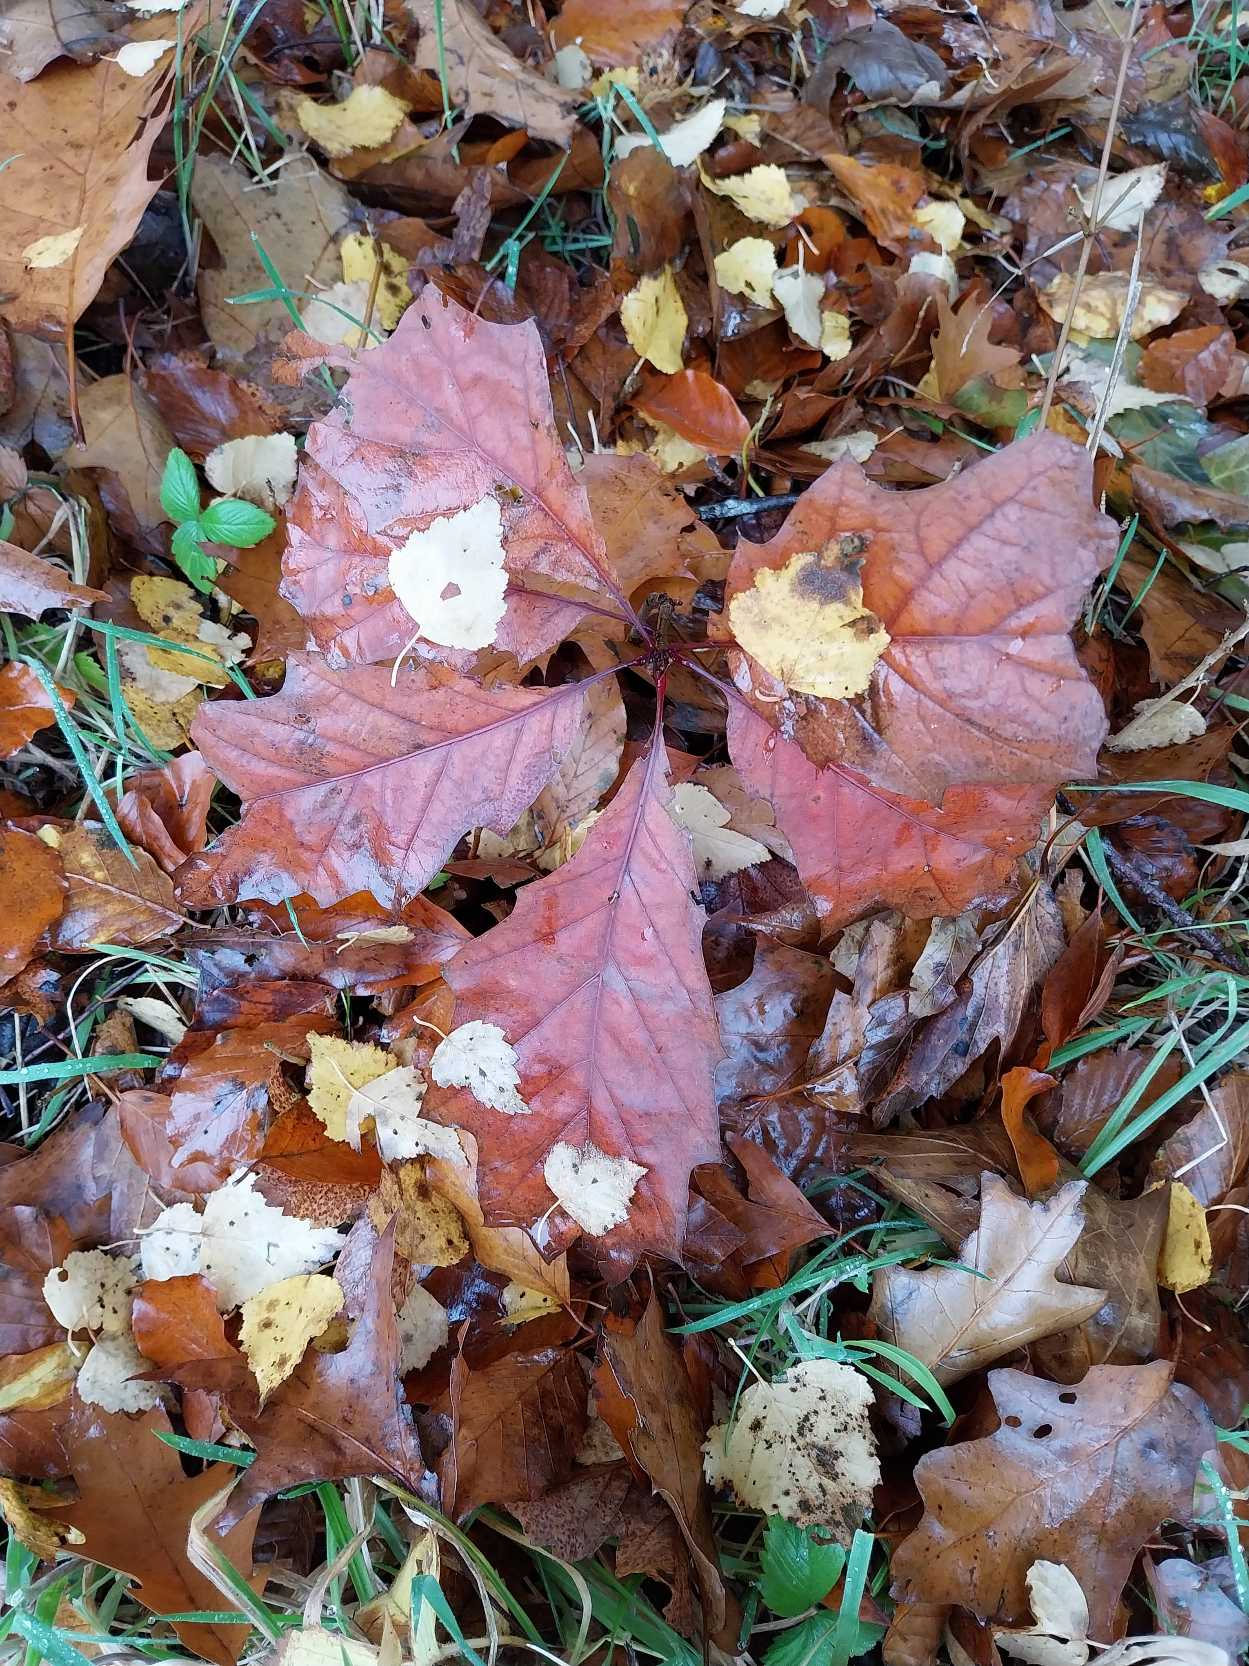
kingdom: Plantae
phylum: Tracheophyta
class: Magnoliopsida
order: Fagales
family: Fagaceae
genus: Quercus
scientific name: Quercus rubra
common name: Rød-eg
